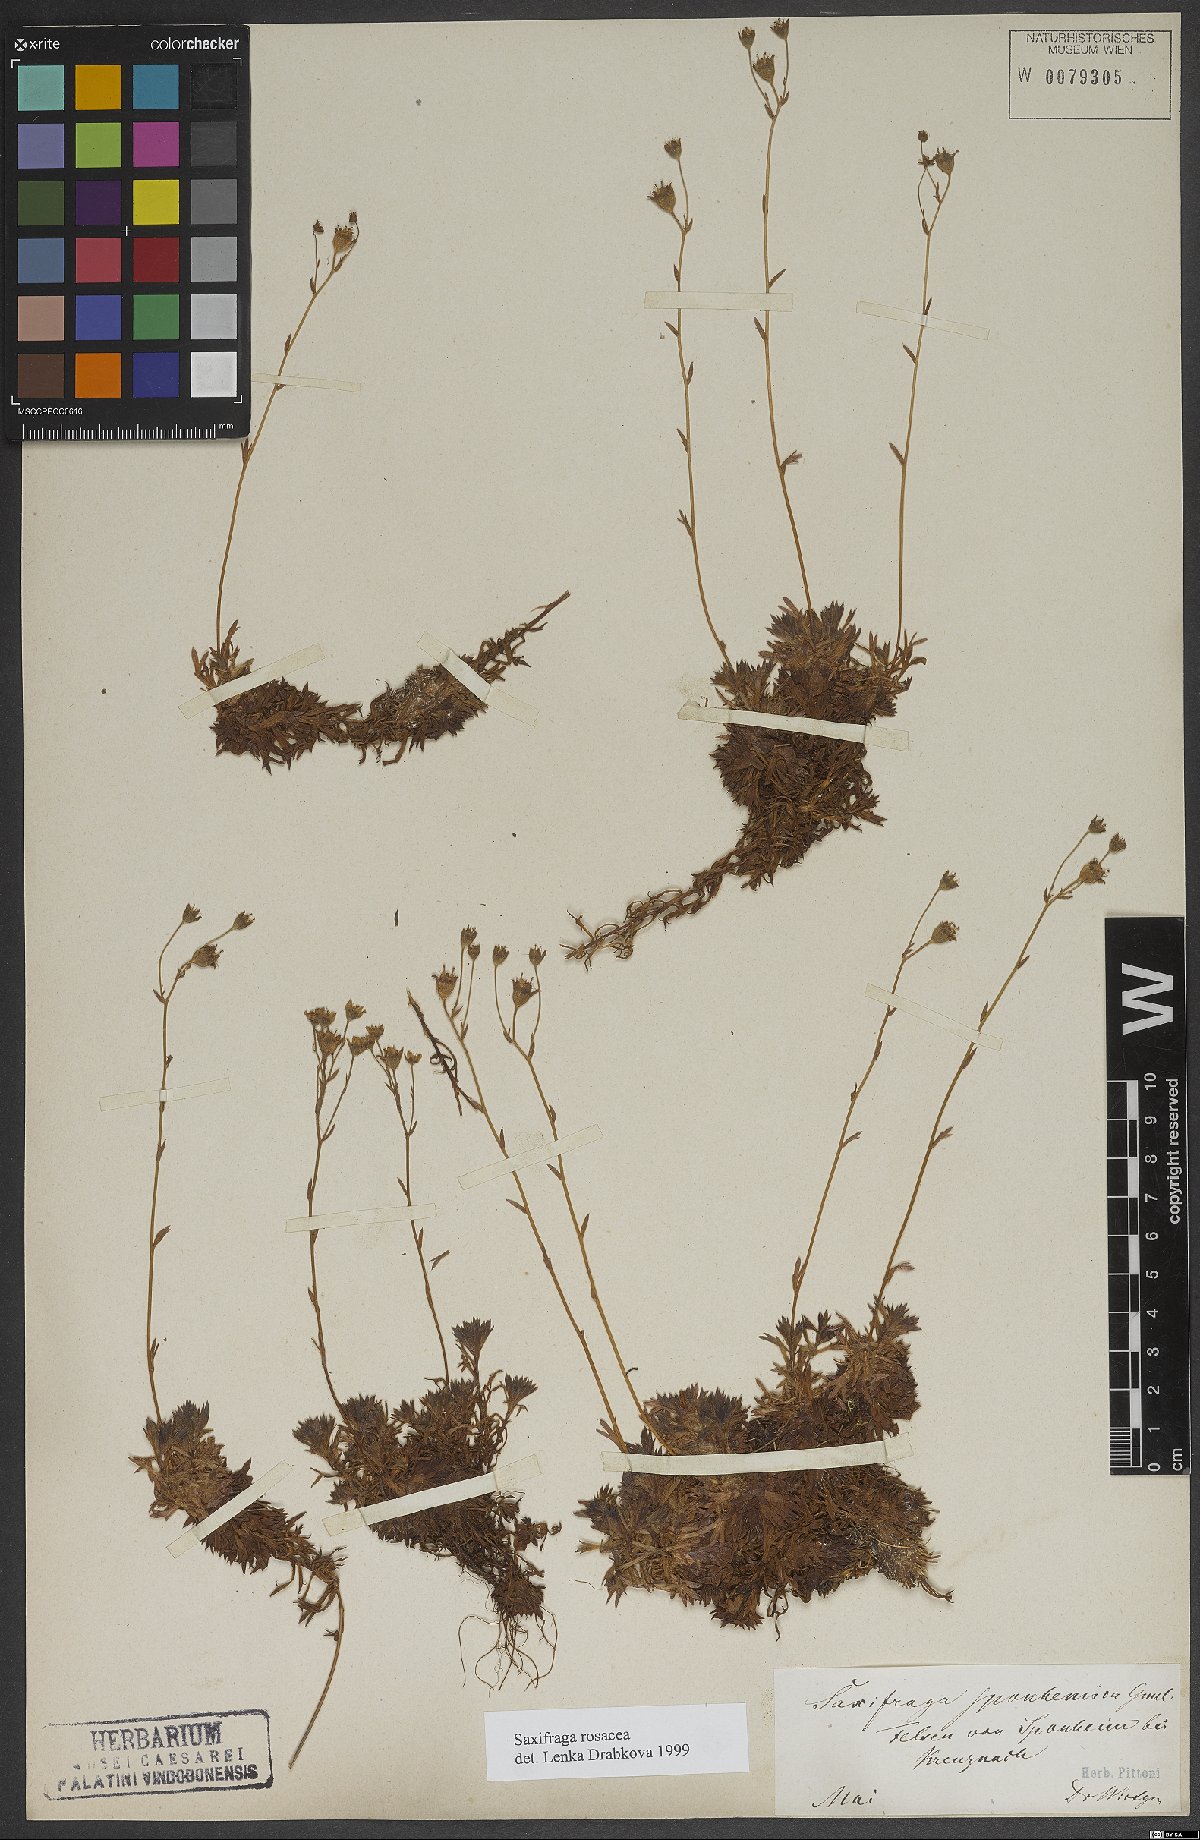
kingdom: Plantae
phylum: Tracheophyta
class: Magnoliopsida
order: Saxifragales
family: Saxifragaceae
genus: Saxifraga
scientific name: Saxifraga rosacea
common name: Irish saxifrage
